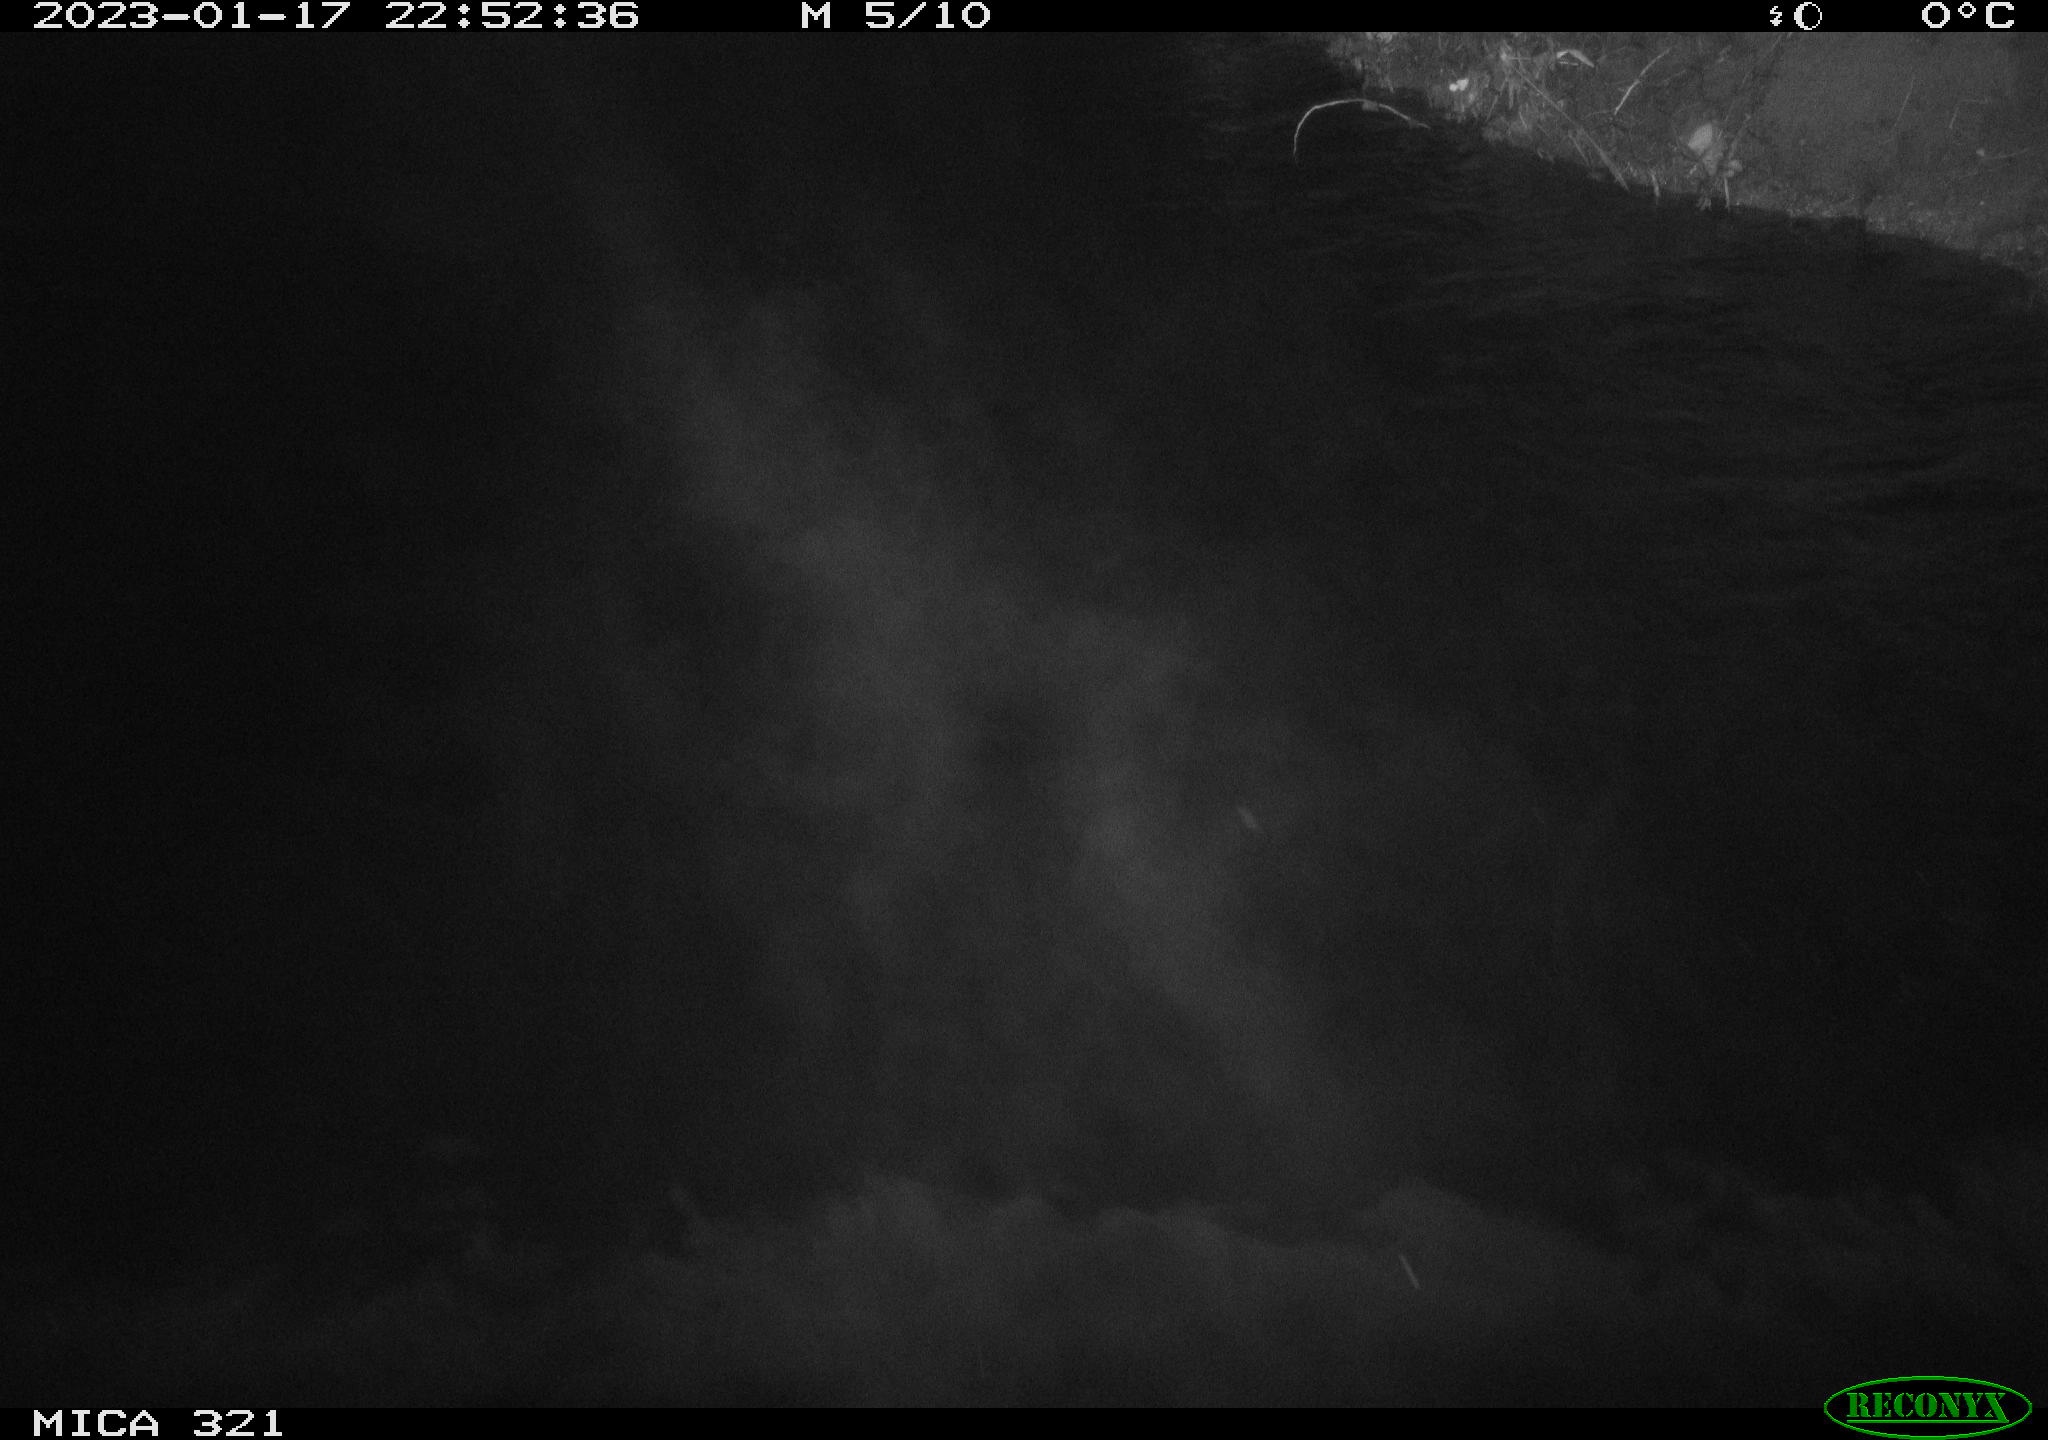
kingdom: Animalia
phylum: Chordata
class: Aves
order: Anseriformes
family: Anatidae
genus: Anas
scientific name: Anas
